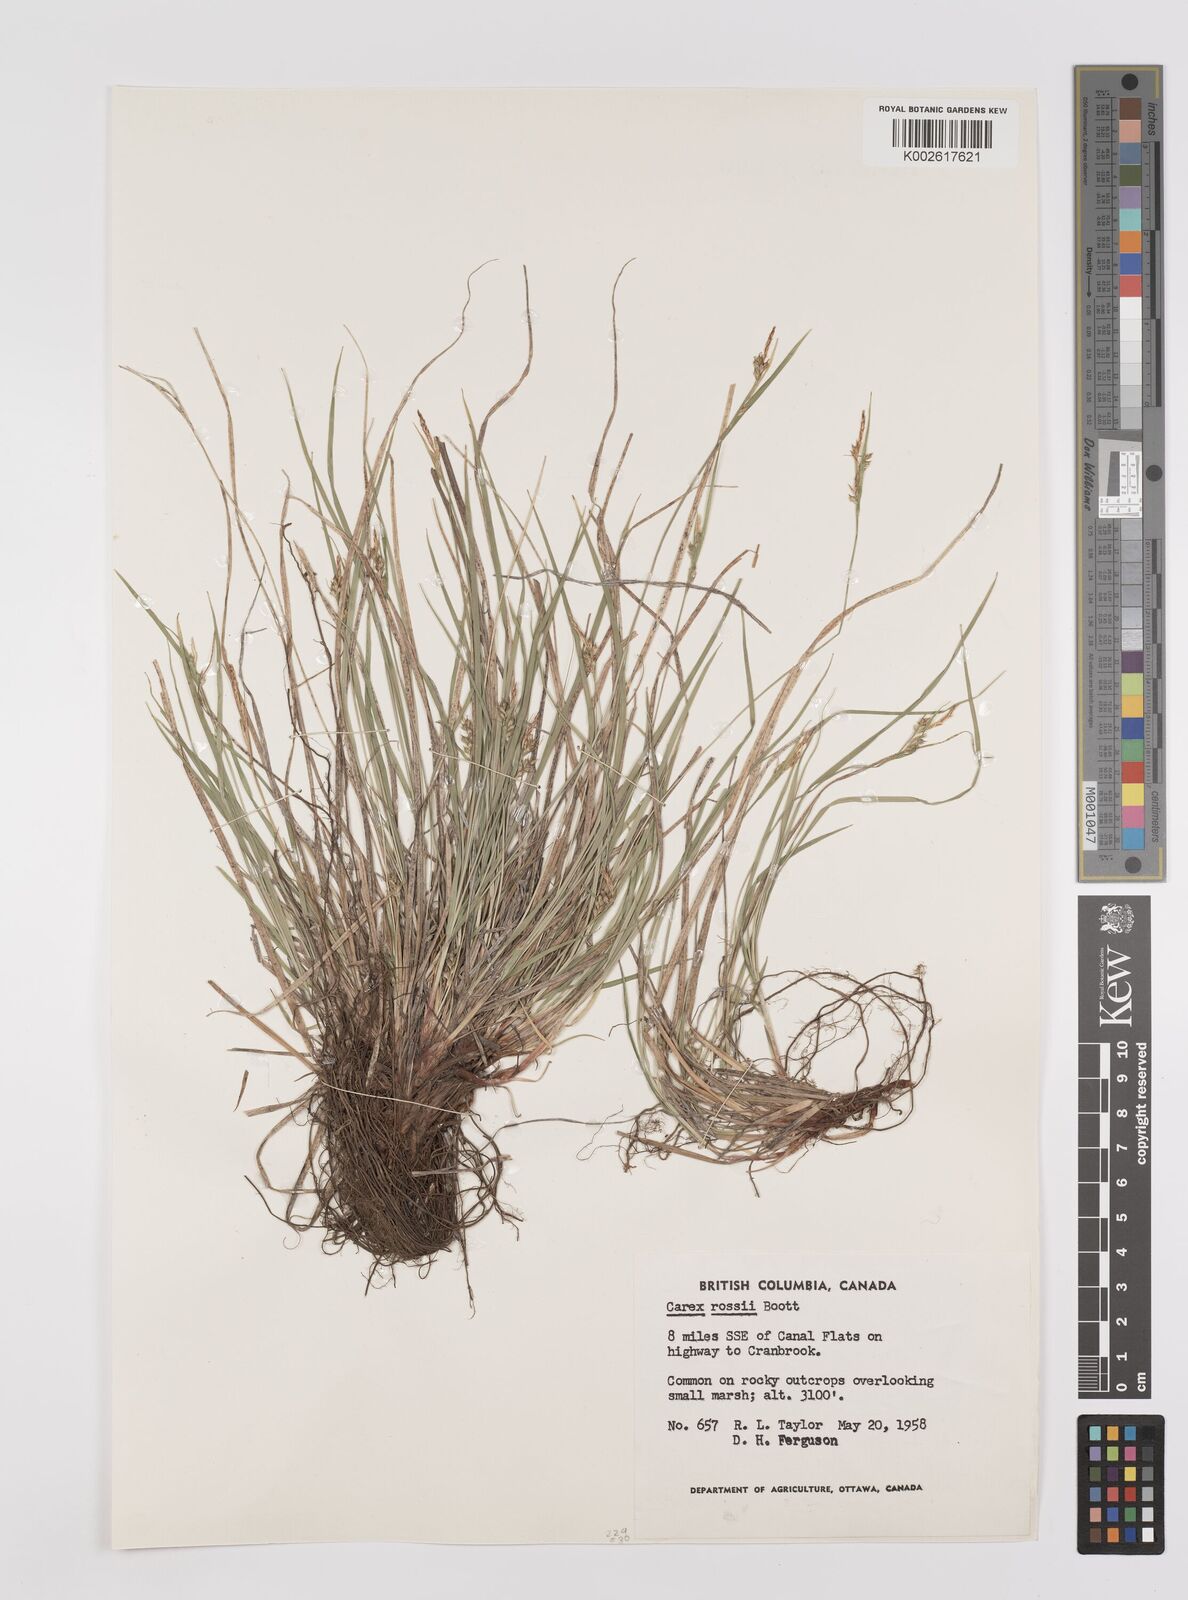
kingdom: Plantae
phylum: Tracheophyta
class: Liliopsida
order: Poales
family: Cyperaceae
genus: Carex
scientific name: Carex rossii
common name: Ross' sedge
